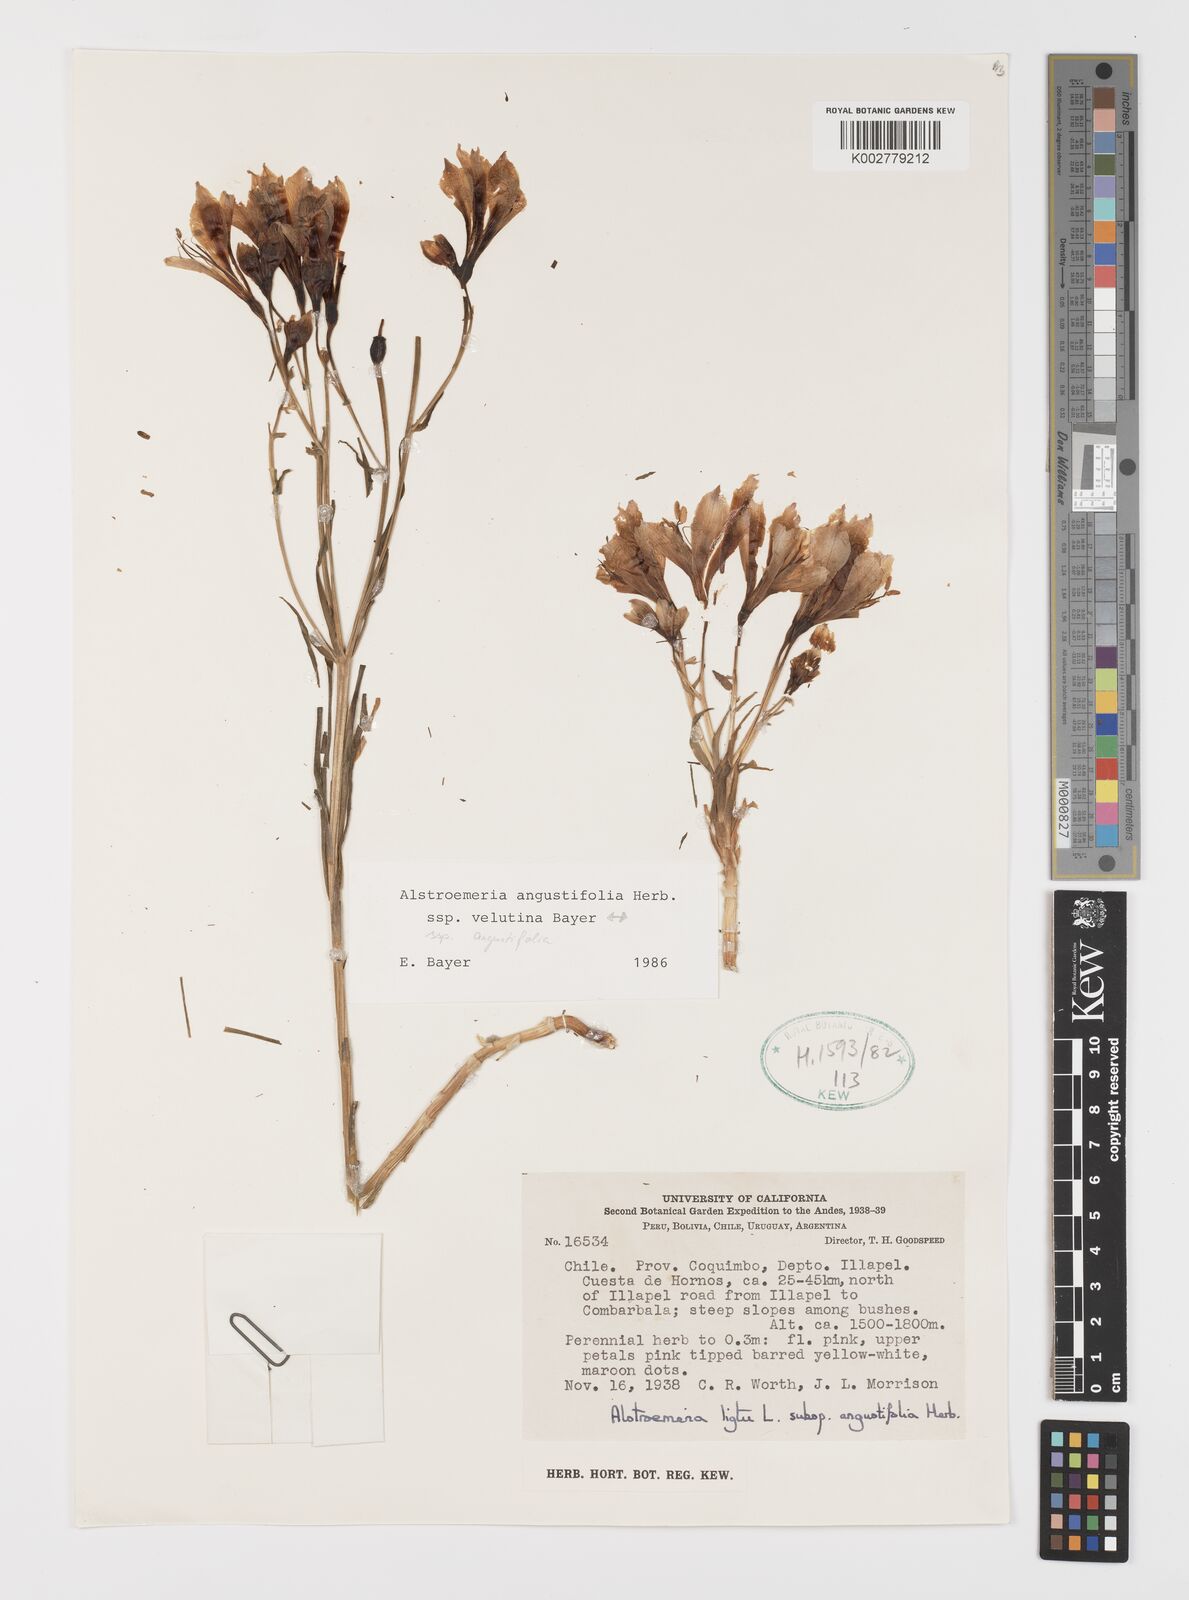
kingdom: Plantae
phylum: Tracheophyta
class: Liliopsida
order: Liliales
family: Alstroemeriaceae
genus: Alstroemeria
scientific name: Alstroemeria angustifolia
